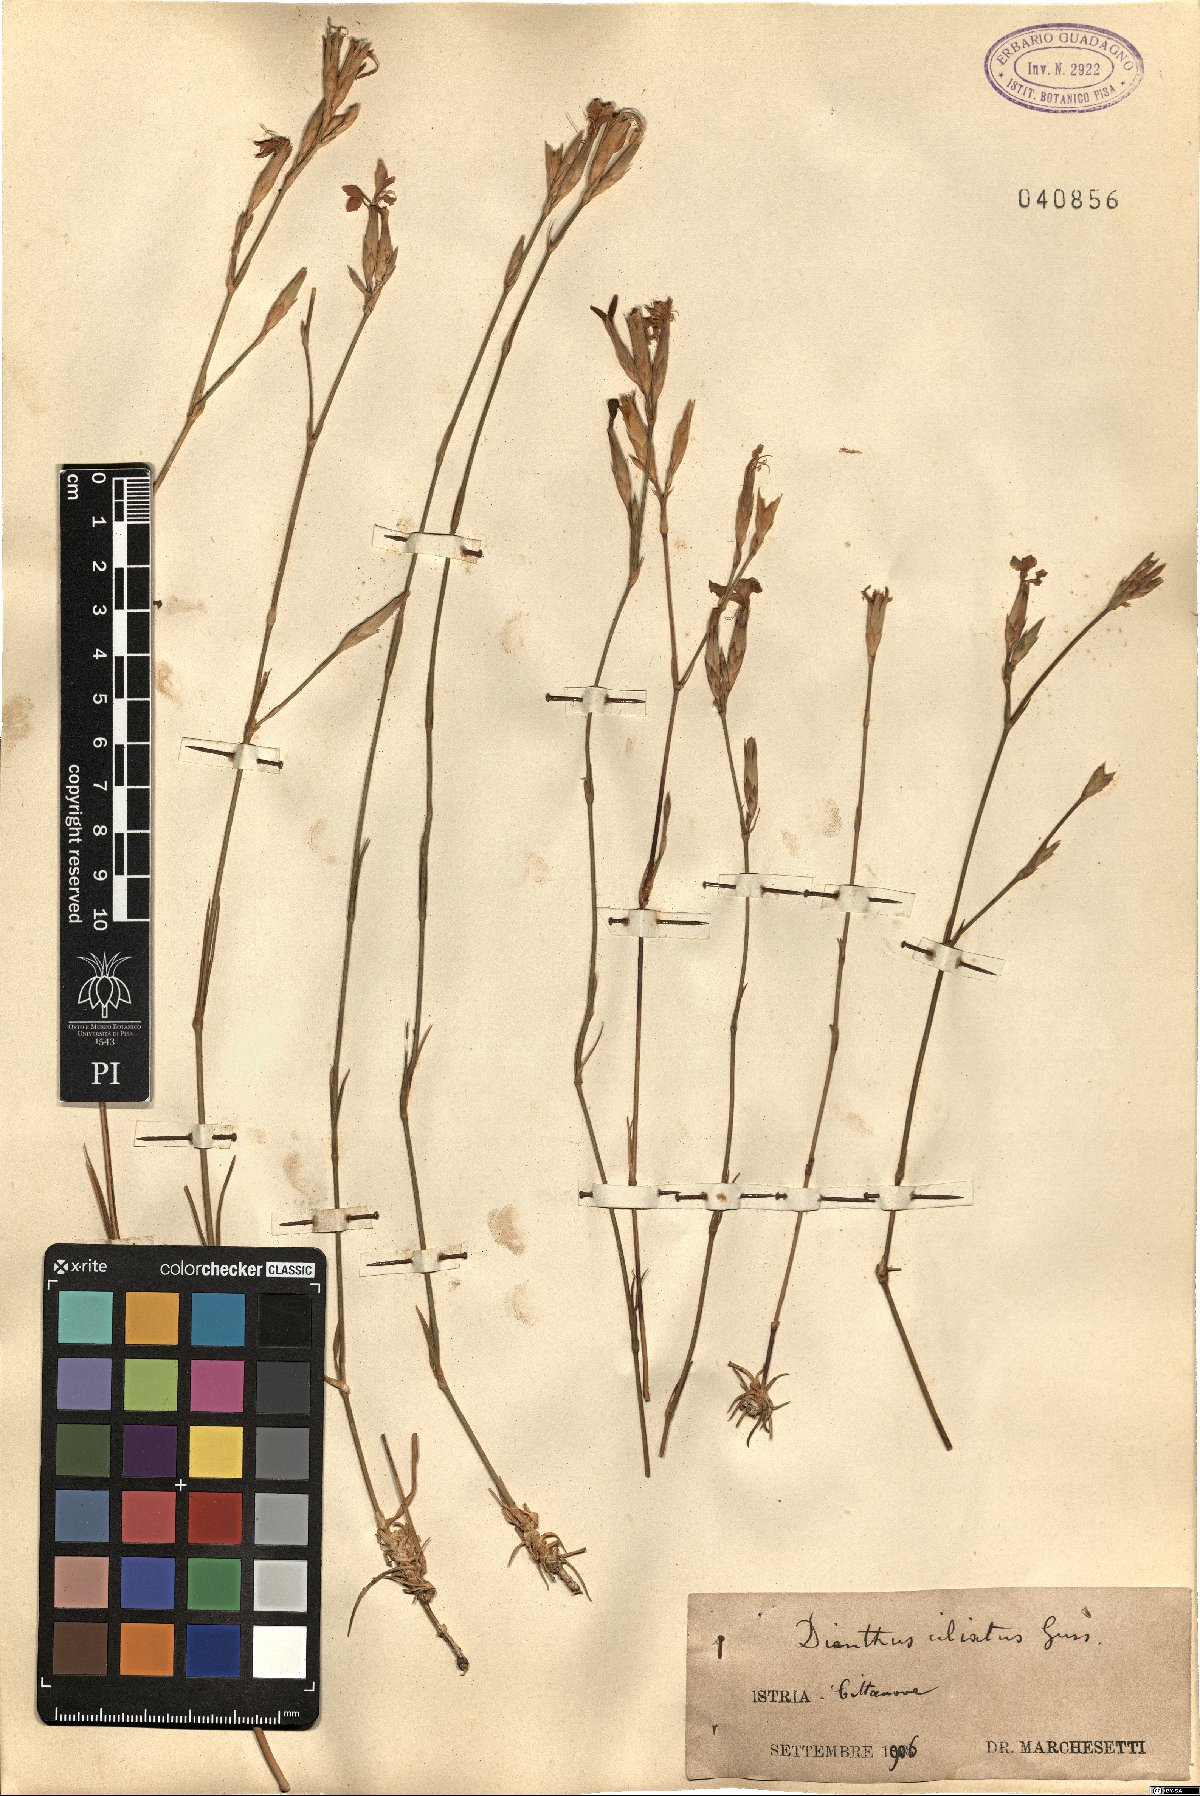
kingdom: Plantae
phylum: Tracheophyta
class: Magnoliopsida
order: Caryophyllales
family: Caryophyllaceae
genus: Dianthus
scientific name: Dianthus ciliatus
